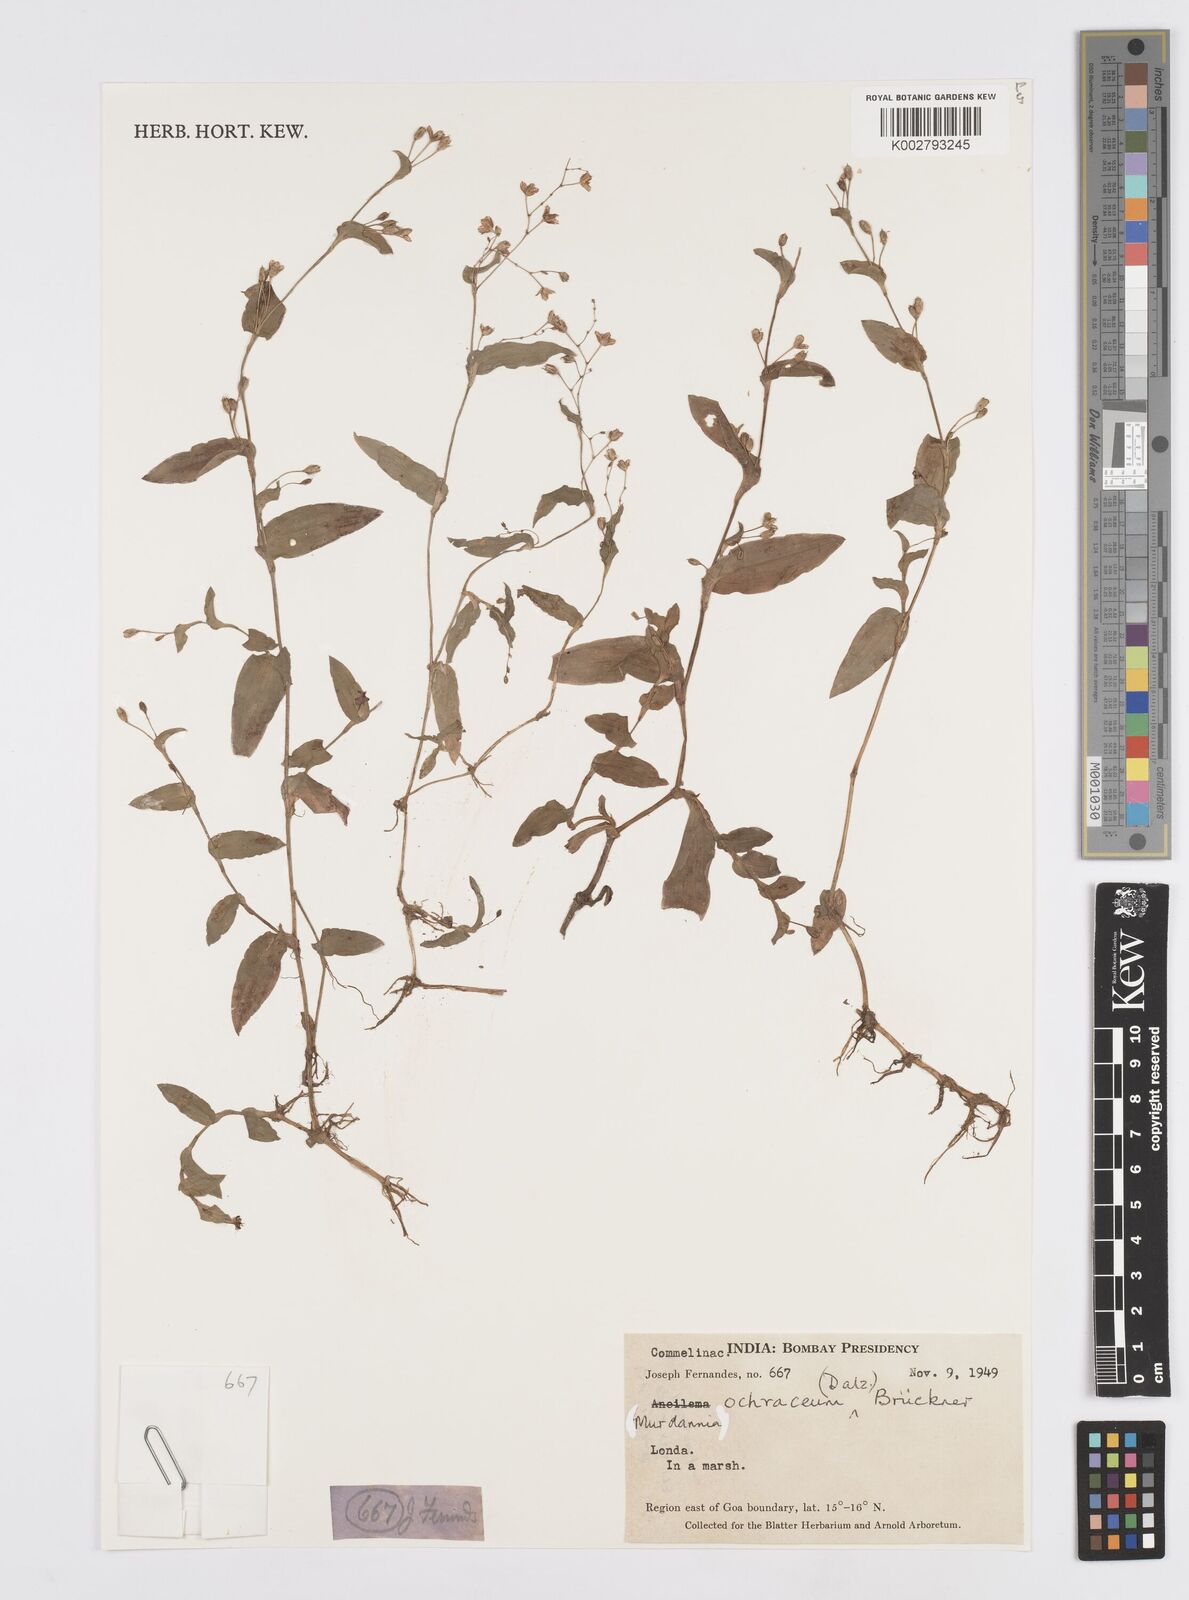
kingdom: Plantae
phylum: Tracheophyta
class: Liliopsida
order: Commelinales
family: Commelinaceae
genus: Murdannia
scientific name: Murdannia
